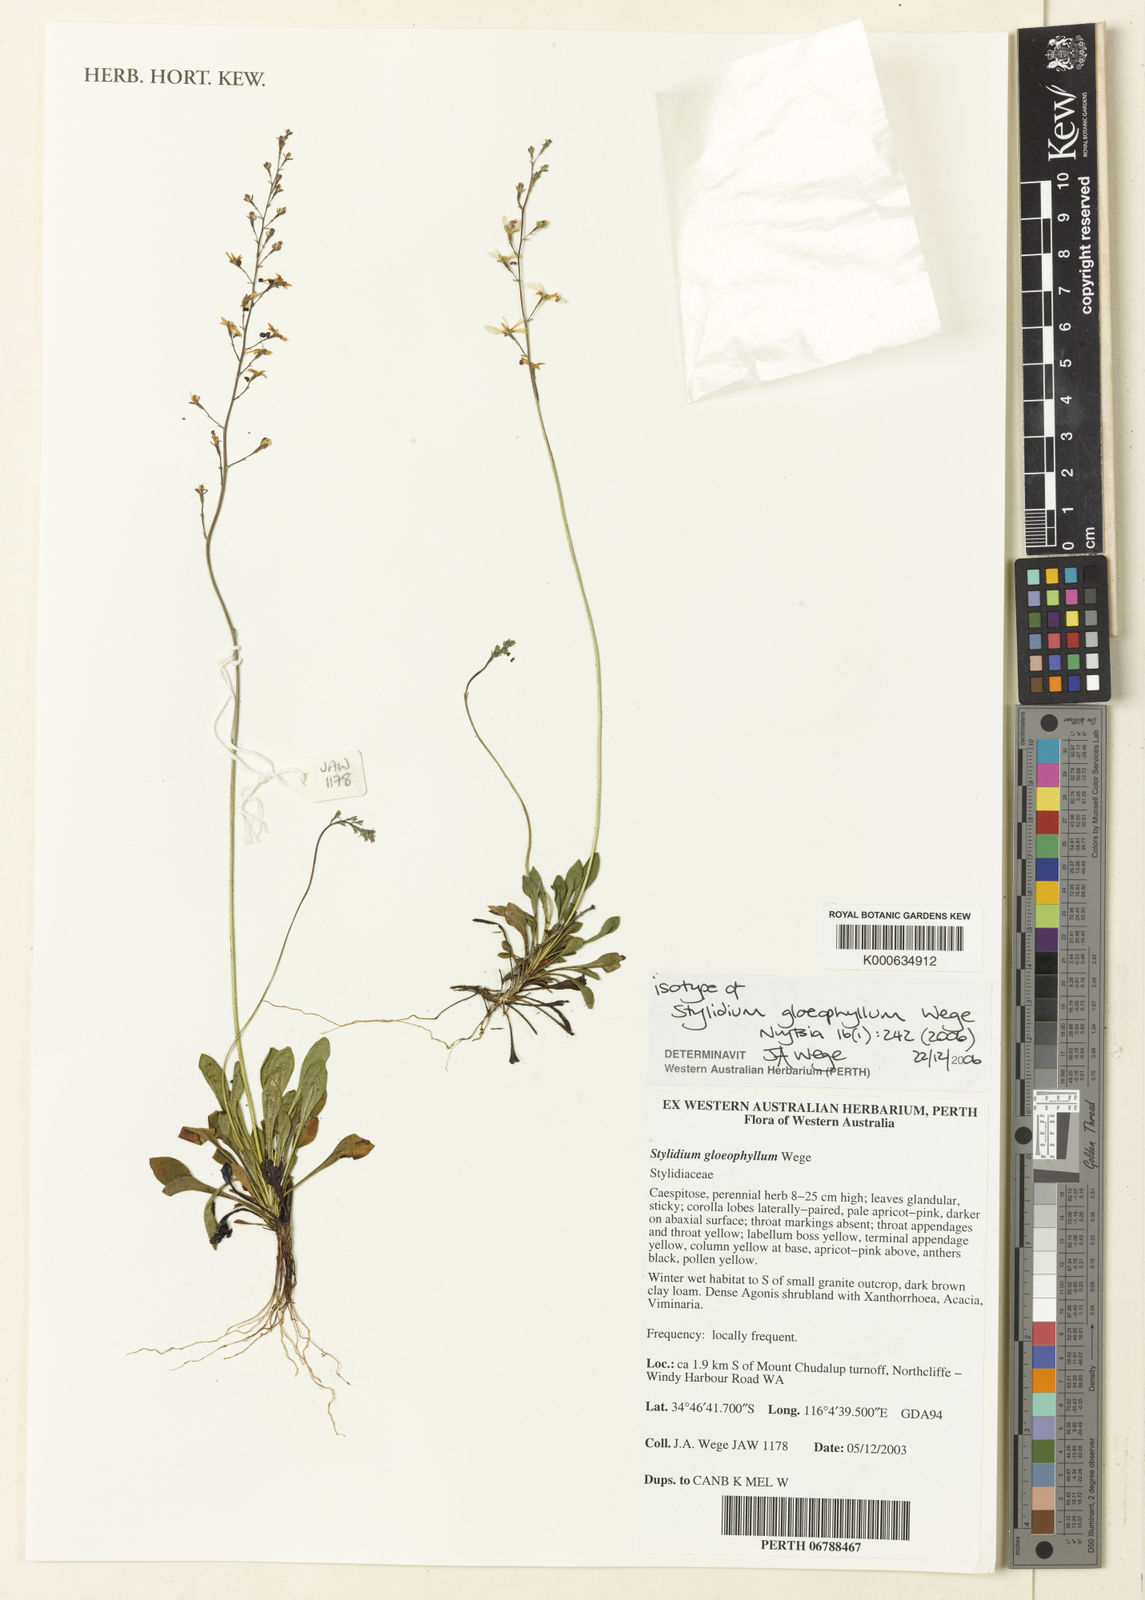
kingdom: Plantae
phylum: Tracheophyta
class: Magnoliopsida
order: Asterales
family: Stylidiaceae
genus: Stylidium
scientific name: Stylidium gloeophyllum
